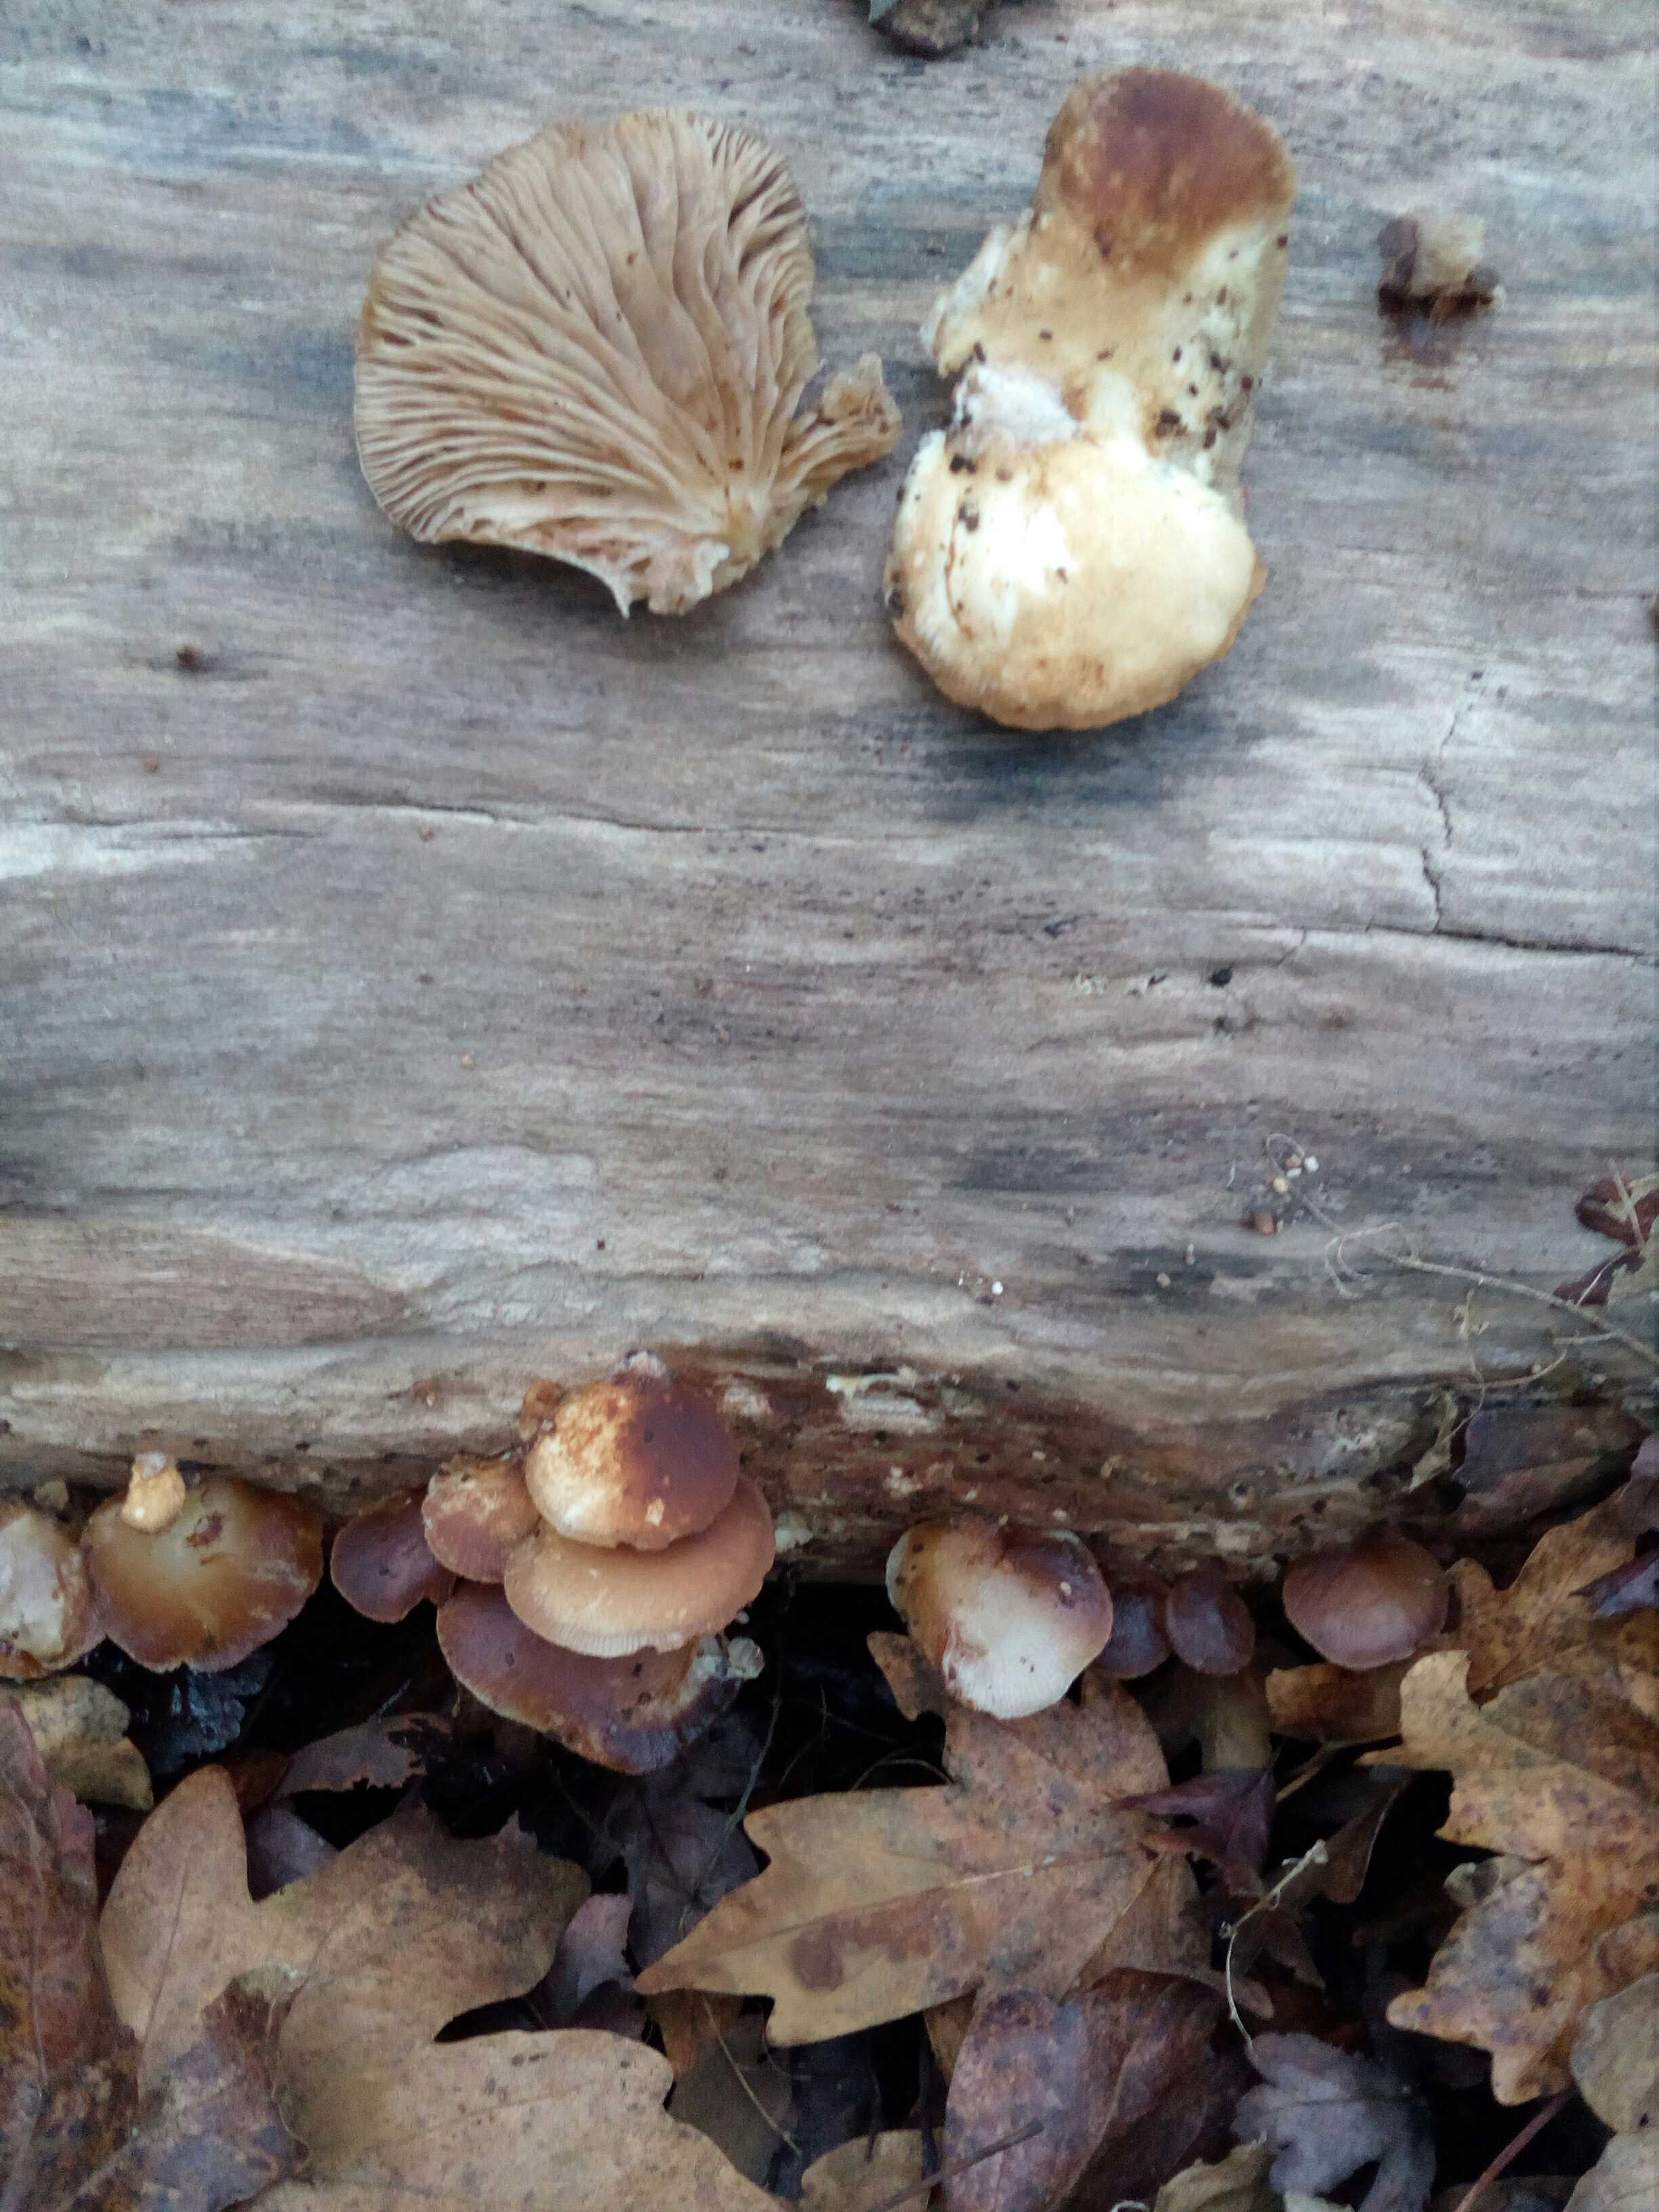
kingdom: Fungi
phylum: Basidiomycota
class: Agaricomycetes
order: Agaricales
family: Crepidotaceae
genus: Crepidotus
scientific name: Crepidotus mollis
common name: blød muslingesvamp
